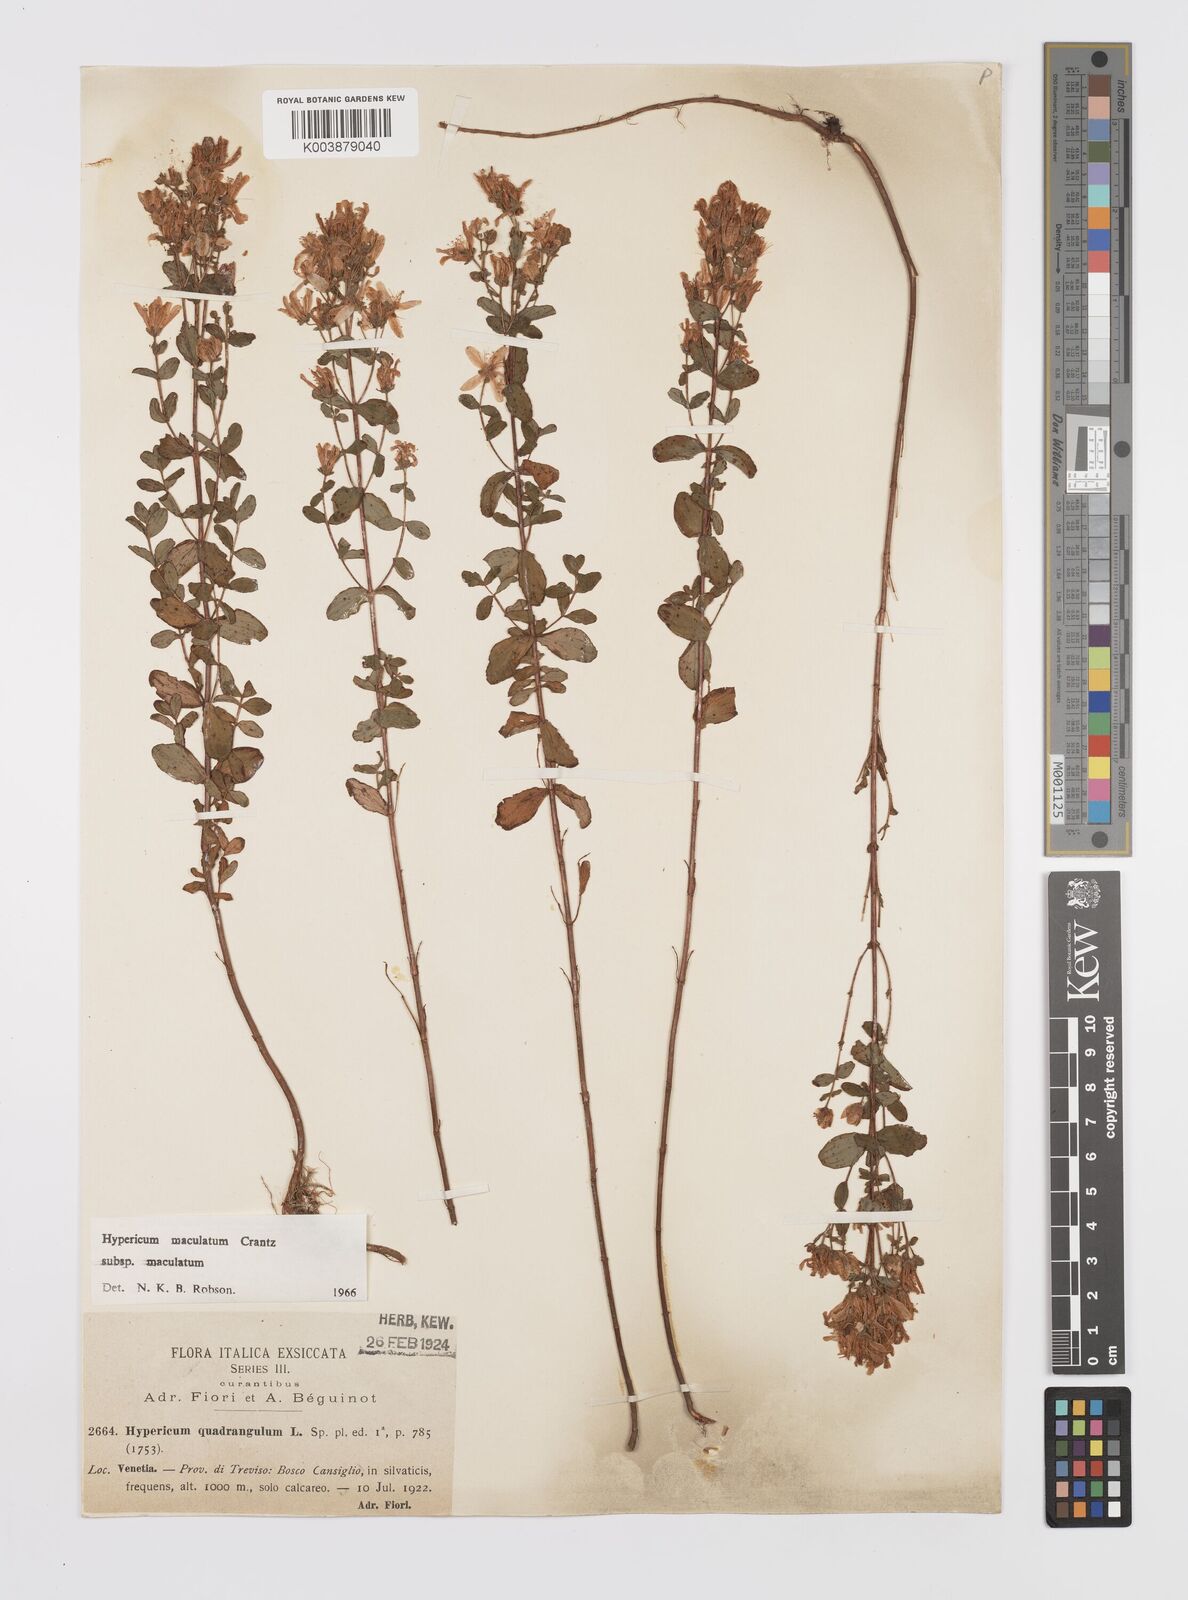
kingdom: Plantae
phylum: Tracheophyta
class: Magnoliopsida
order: Malpighiales
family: Hypericaceae
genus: Hypericum
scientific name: Hypericum maculatum
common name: Imperforate st. john's-wort
